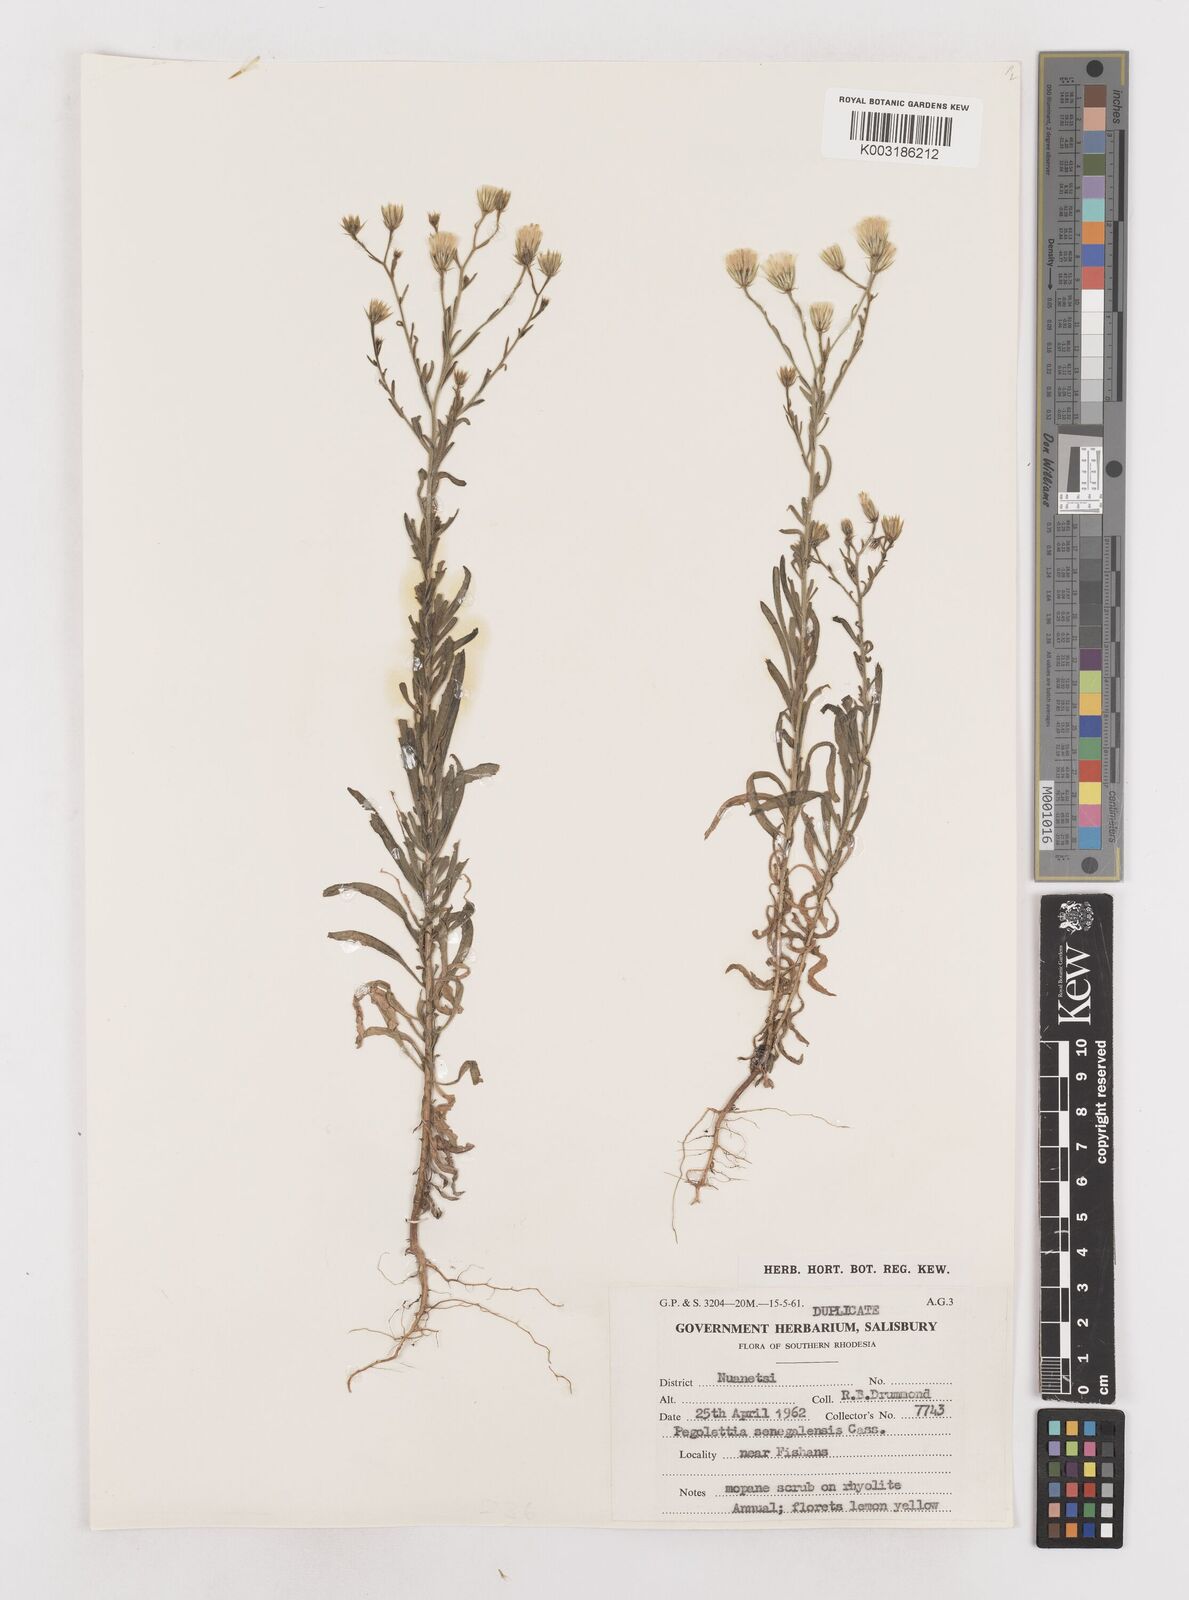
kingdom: Plantae
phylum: Tracheophyta
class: Magnoliopsida
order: Asterales
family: Asteraceae
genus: Pegolettia
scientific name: Pegolettia senegalensis
